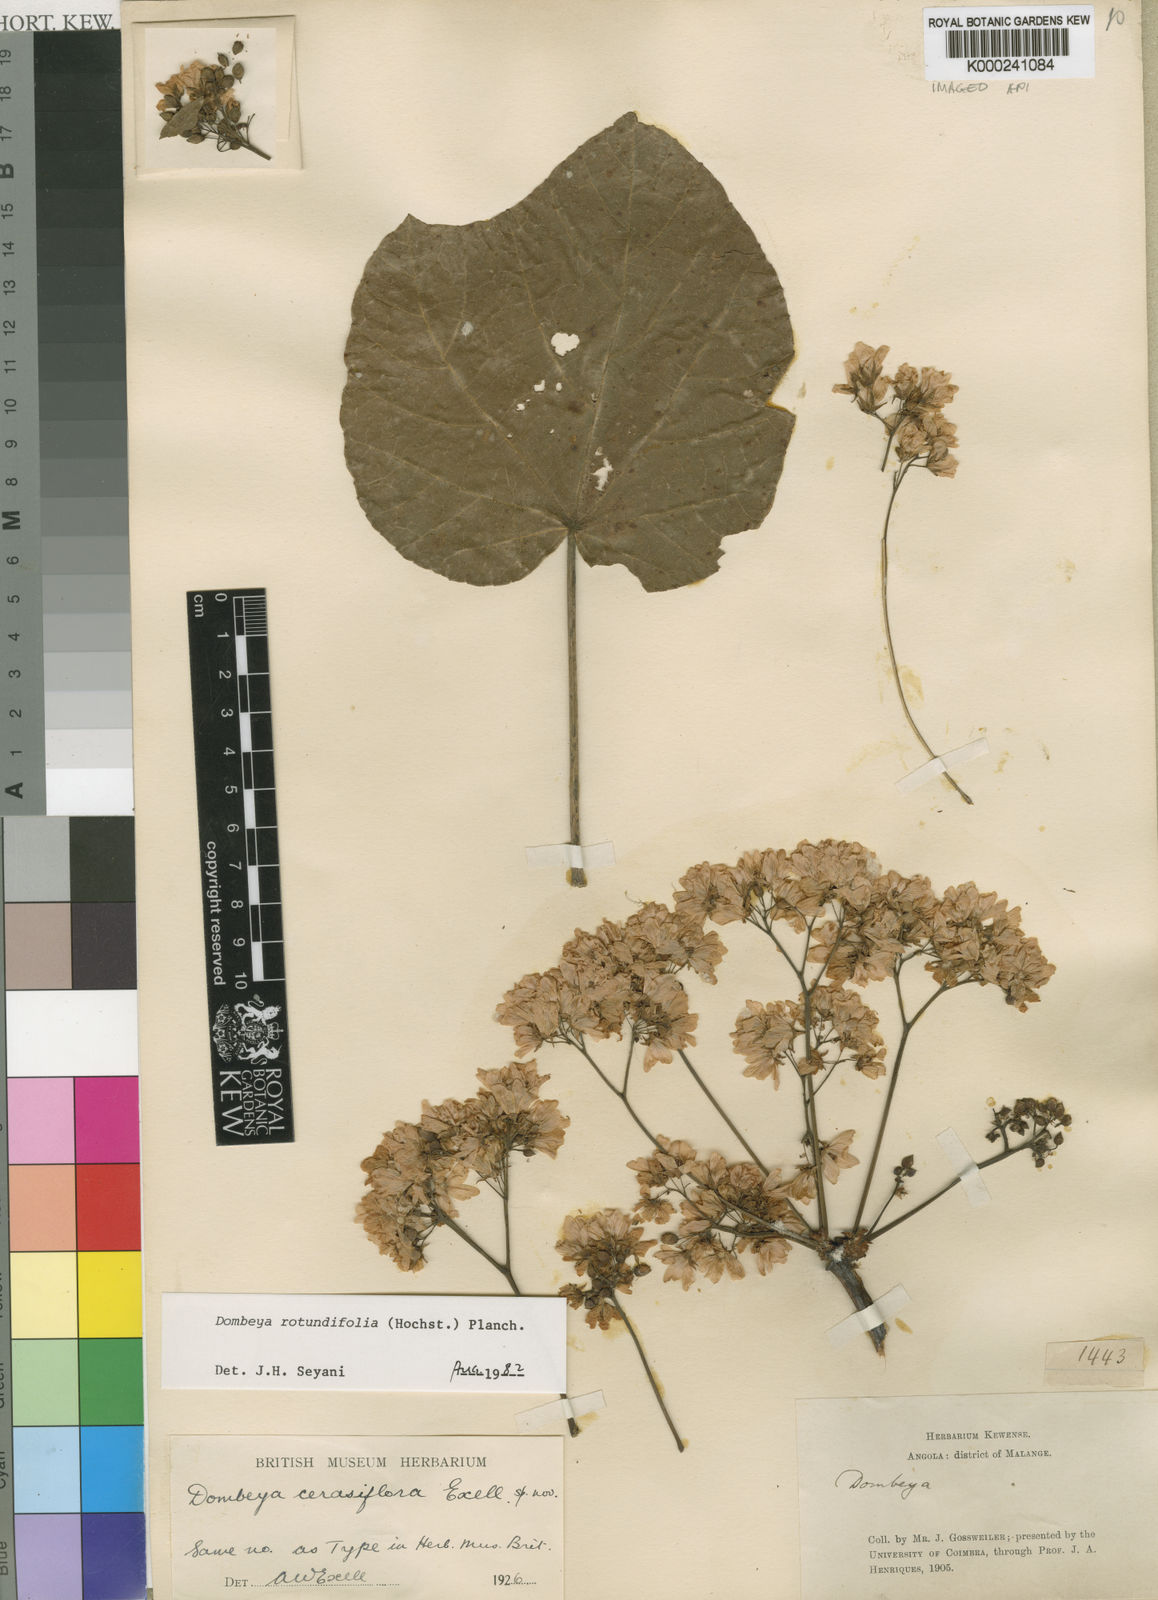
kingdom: Plantae
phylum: Tracheophyta
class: Magnoliopsida
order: Malvales
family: Malvaceae
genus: Dombeya
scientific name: Dombeya rotundifolia
